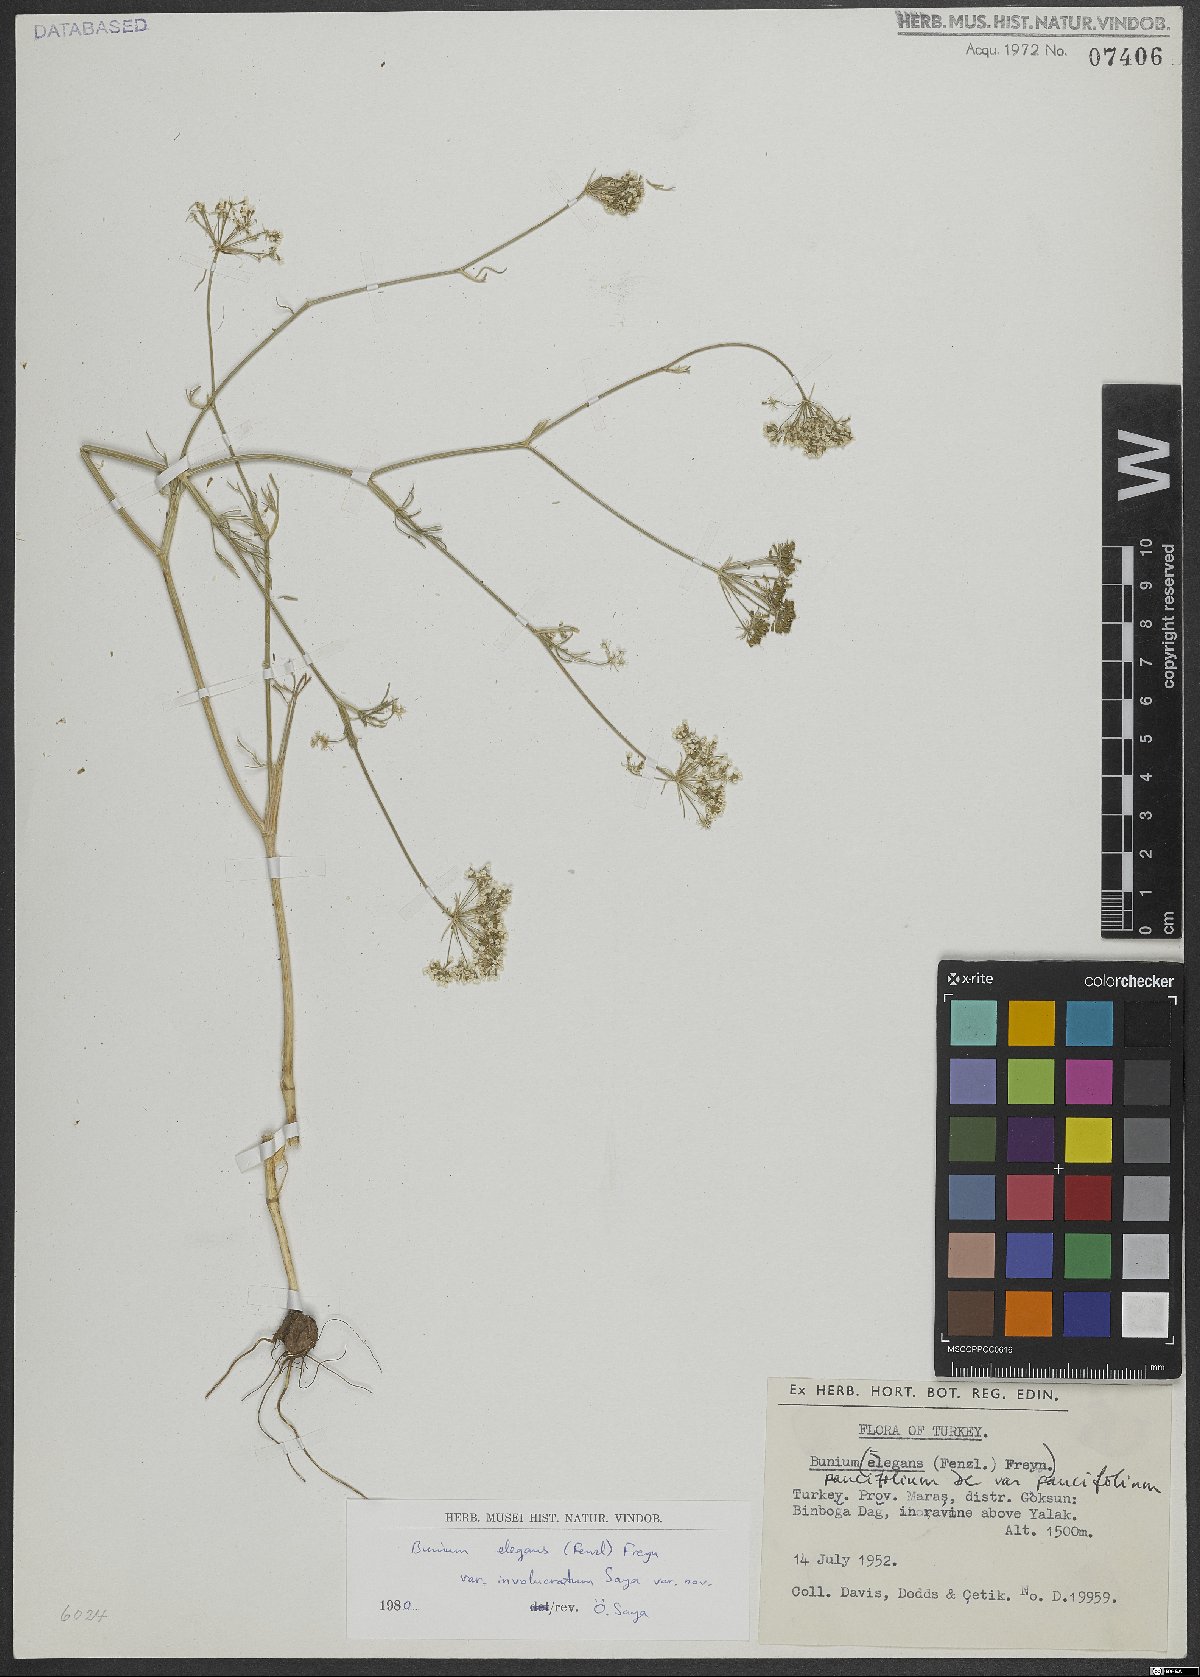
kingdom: Plantae
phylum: Tracheophyta
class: Magnoliopsida
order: Apiales
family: Apiaceae
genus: Bunium
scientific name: Bunium elegans
